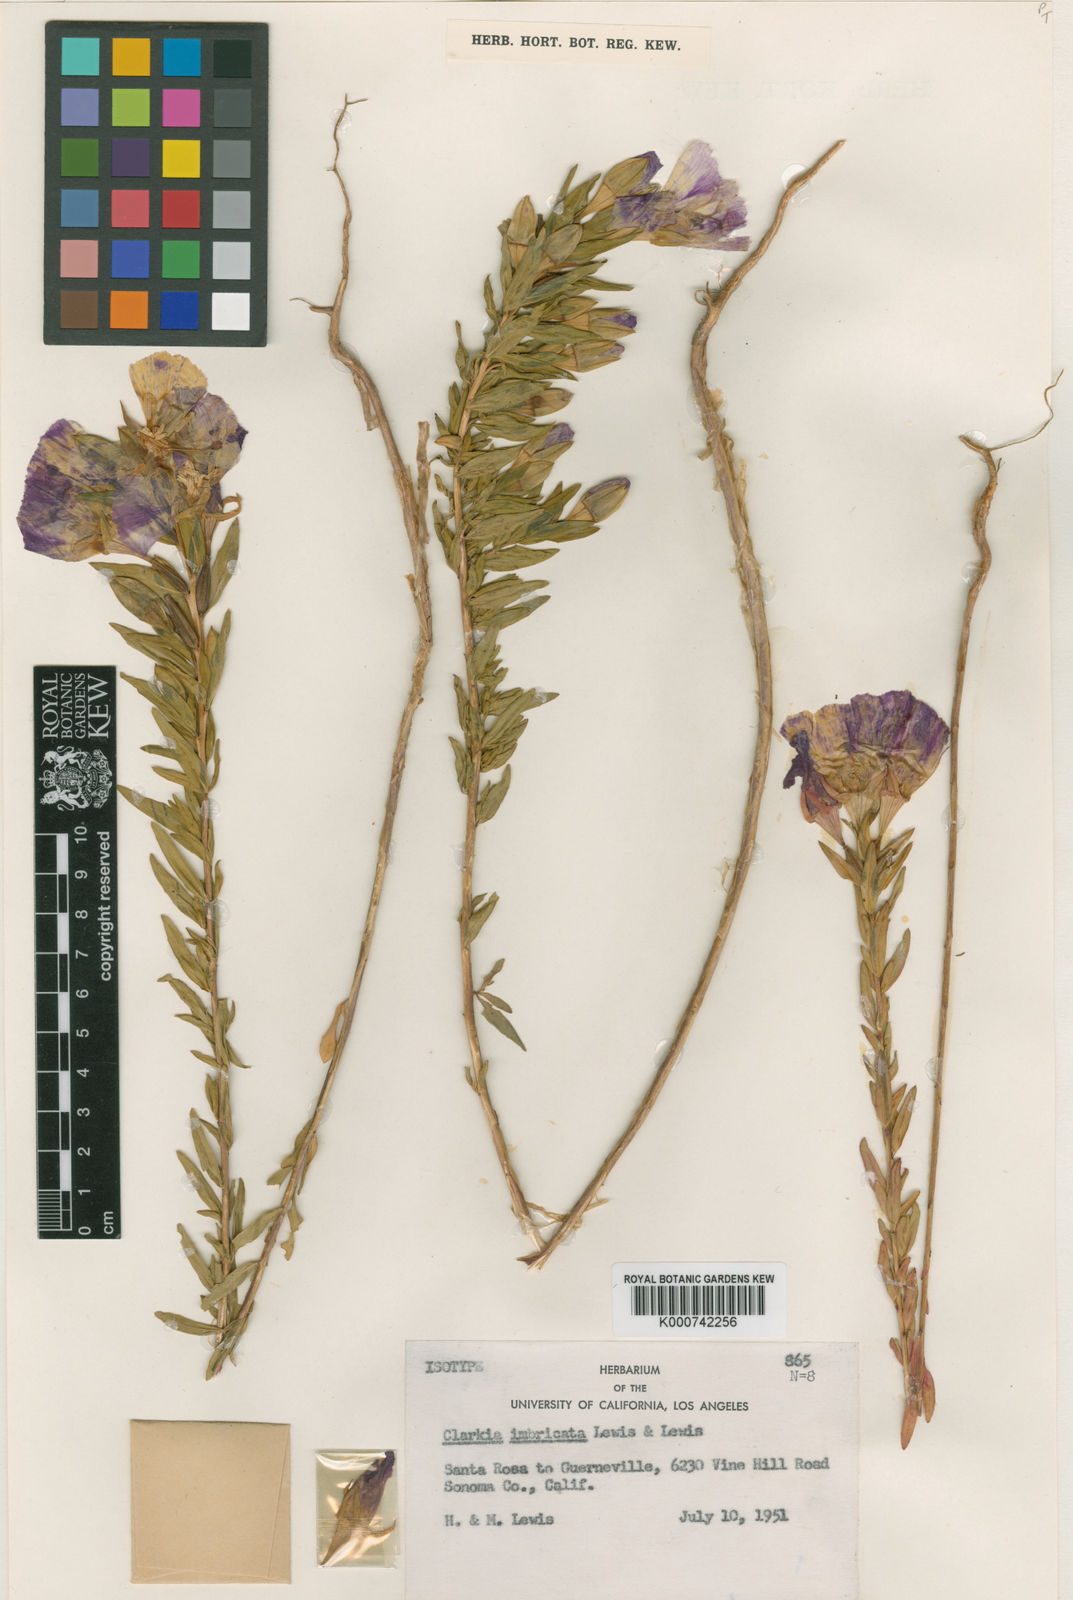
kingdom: Plantae
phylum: Tracheophyta
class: Magnoliopsida
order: Myrtales
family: Onagraceae
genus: Clarkia
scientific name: Clarkia imbricata
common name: Vine hill clarkia
